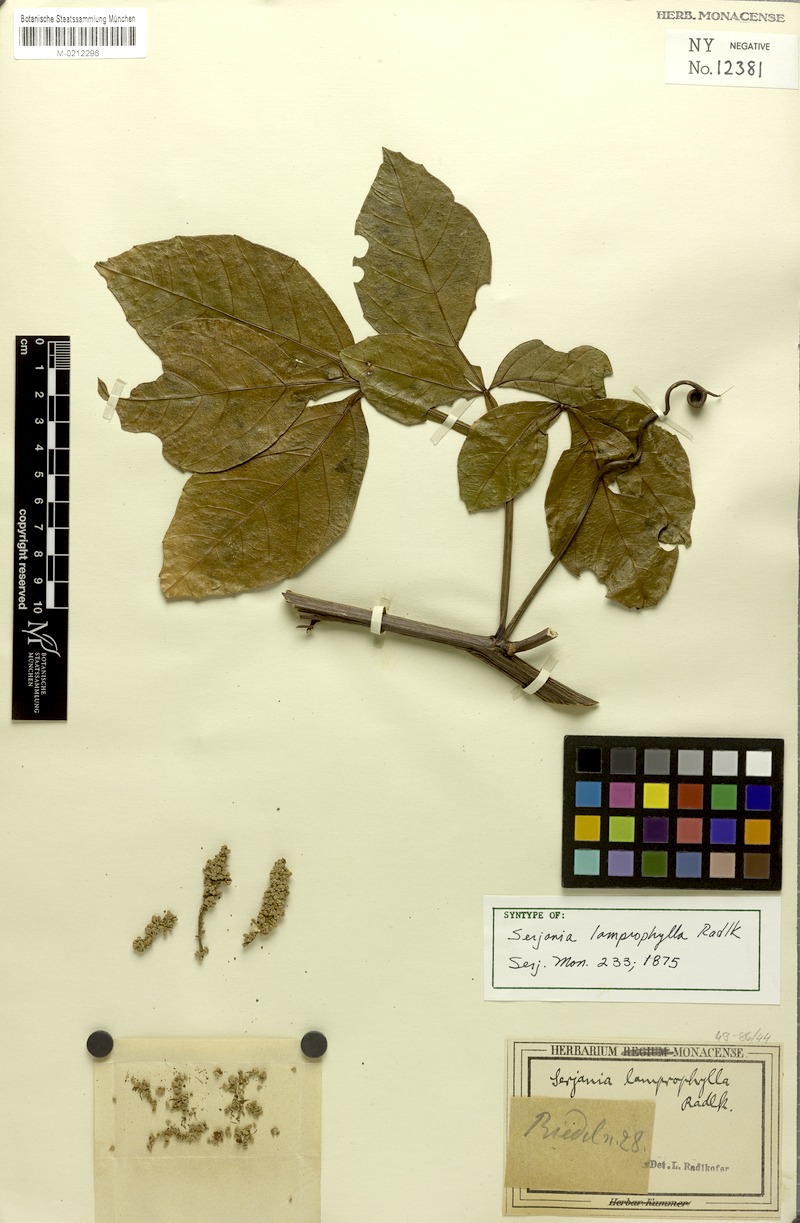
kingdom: Plantae
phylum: Tracheophyta
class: Magnoliopsida
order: Sapindales
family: Sapindaceae
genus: Serjania
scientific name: Serjania lamprophylla
